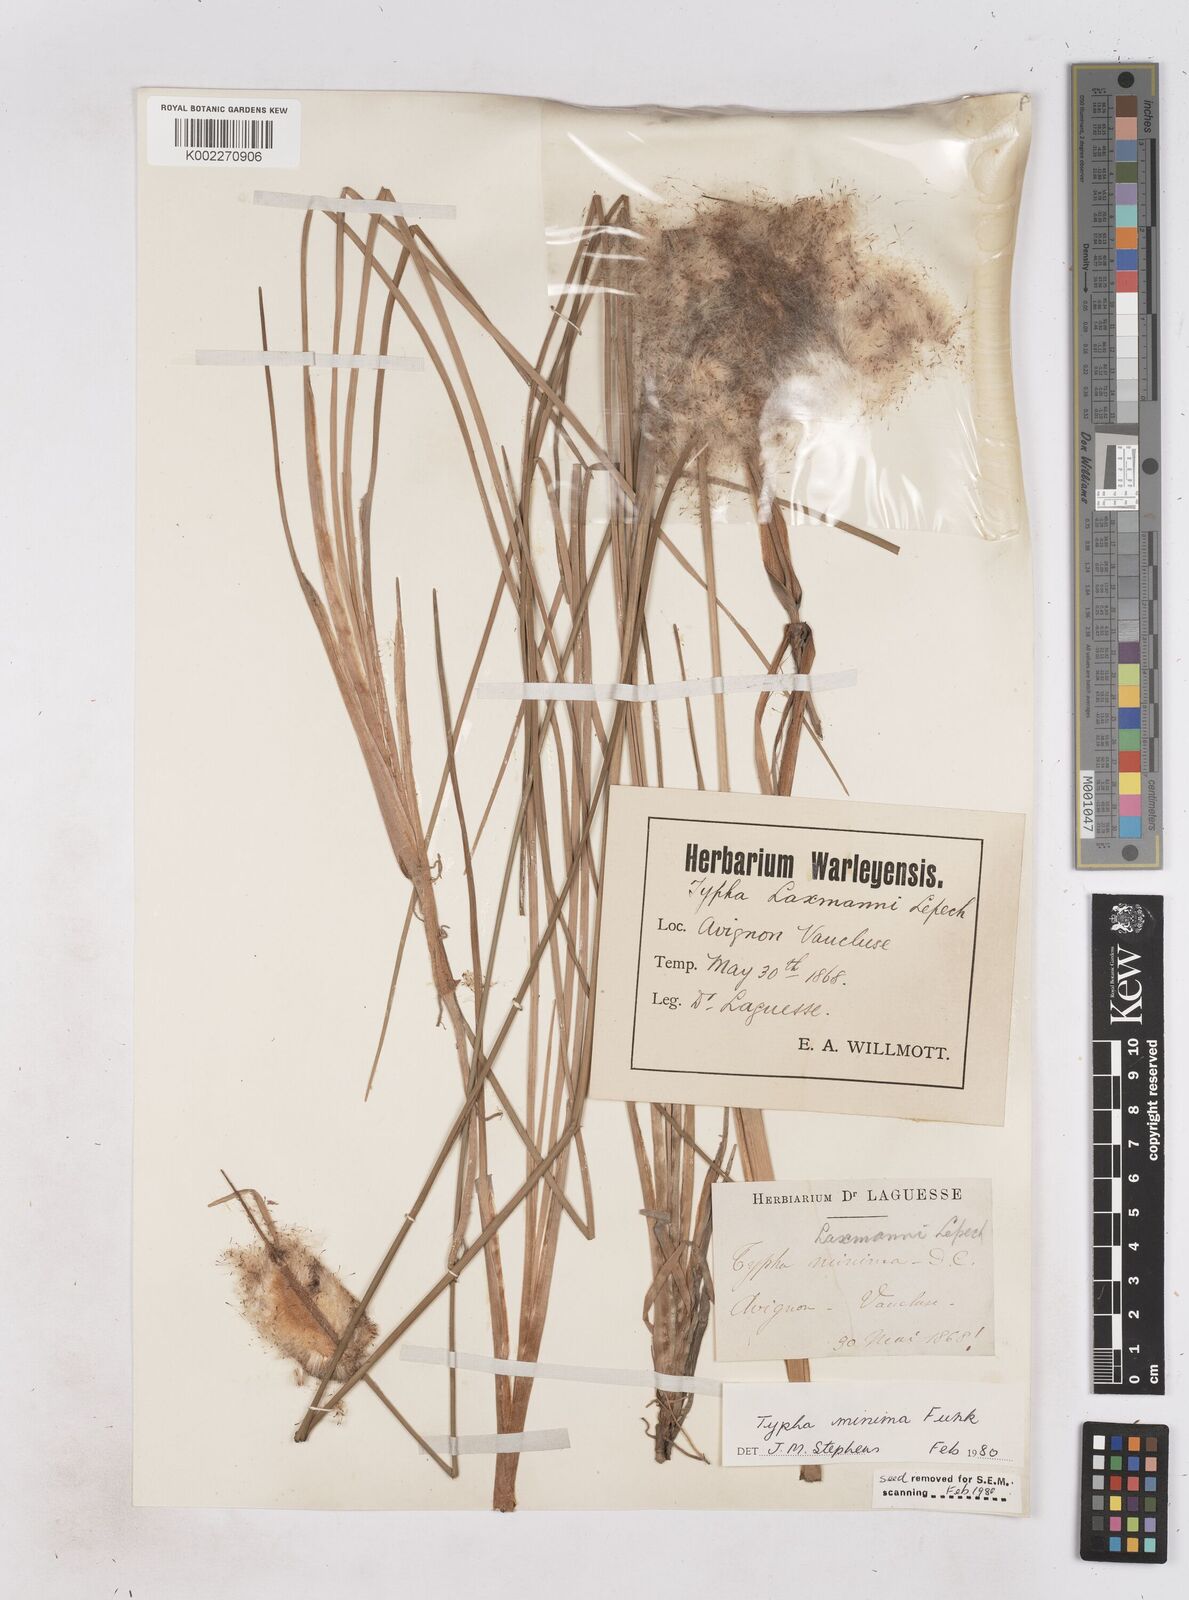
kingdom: Plantae
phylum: Tracheophyta
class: Liliopsida
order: Poales
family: Typhaceae
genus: Typha
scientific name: Typha
